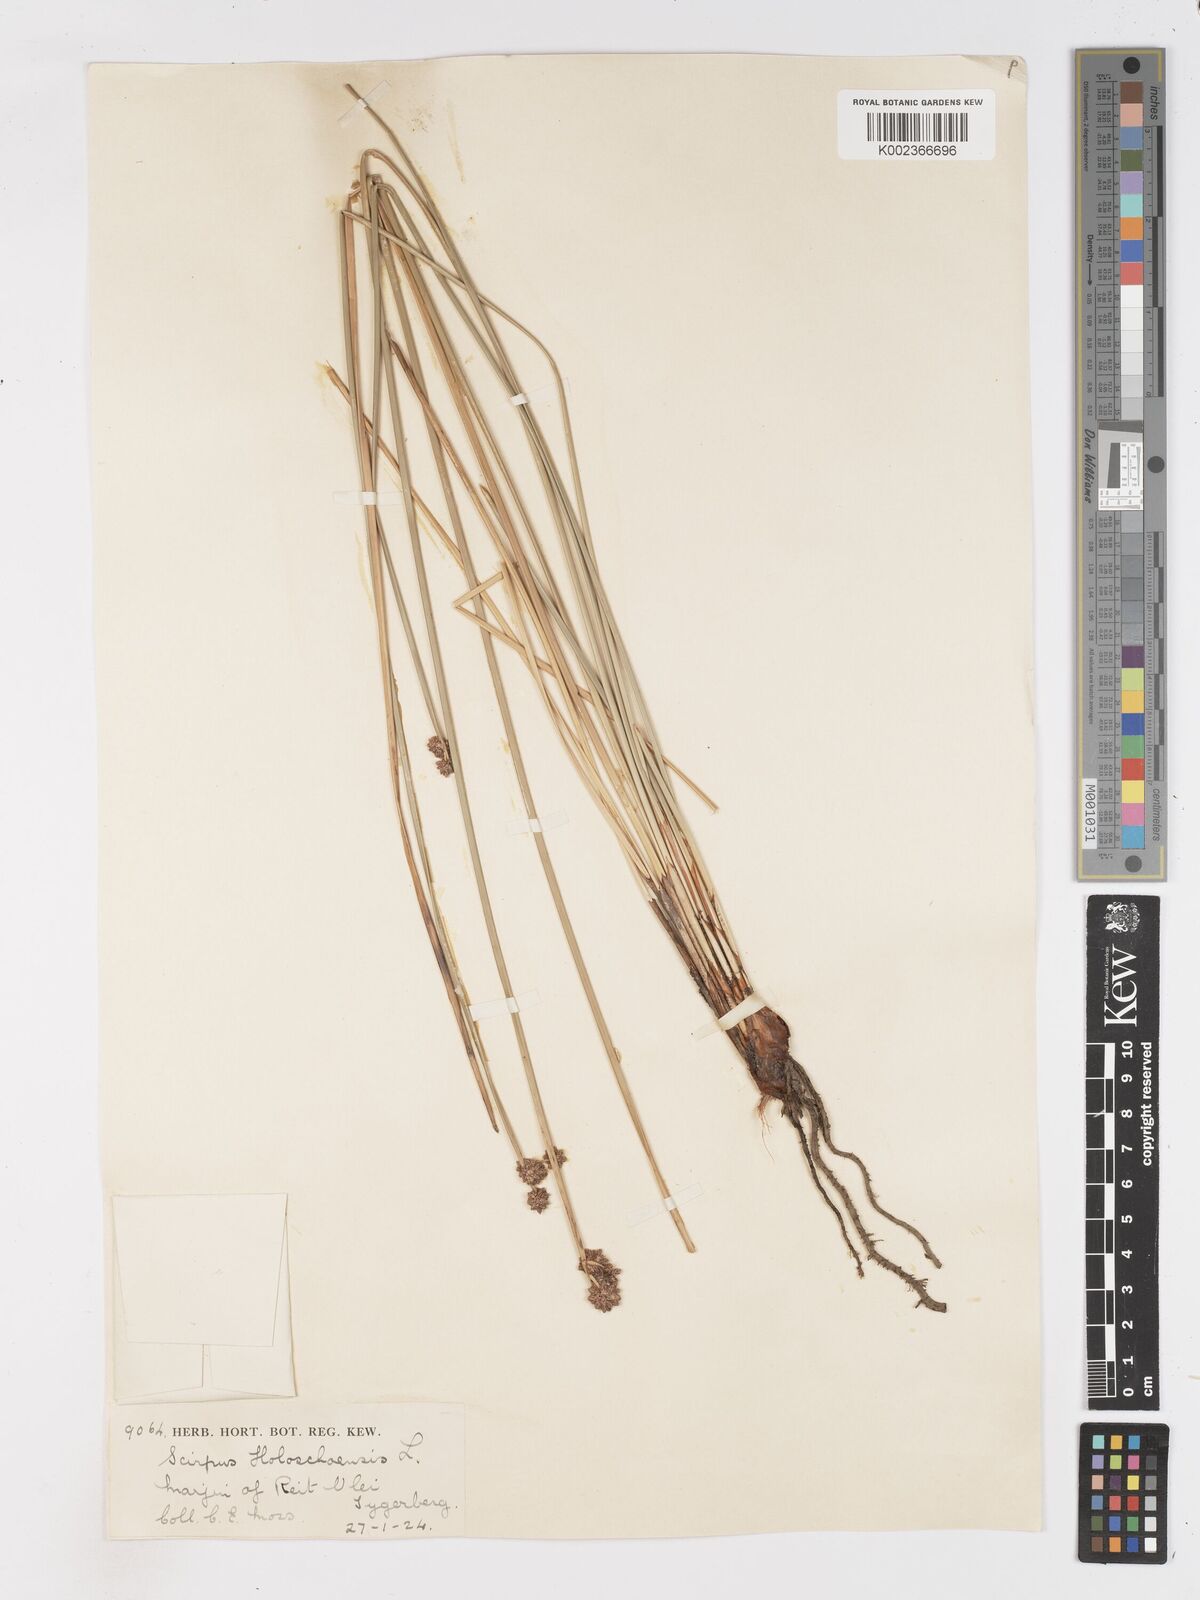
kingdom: Plantae
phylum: Tracheophyta
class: Liliopsida
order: Poales
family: Cyperaceae
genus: Scirpoides
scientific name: Scirpoides holoschoenus
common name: Round-headed club-rush
